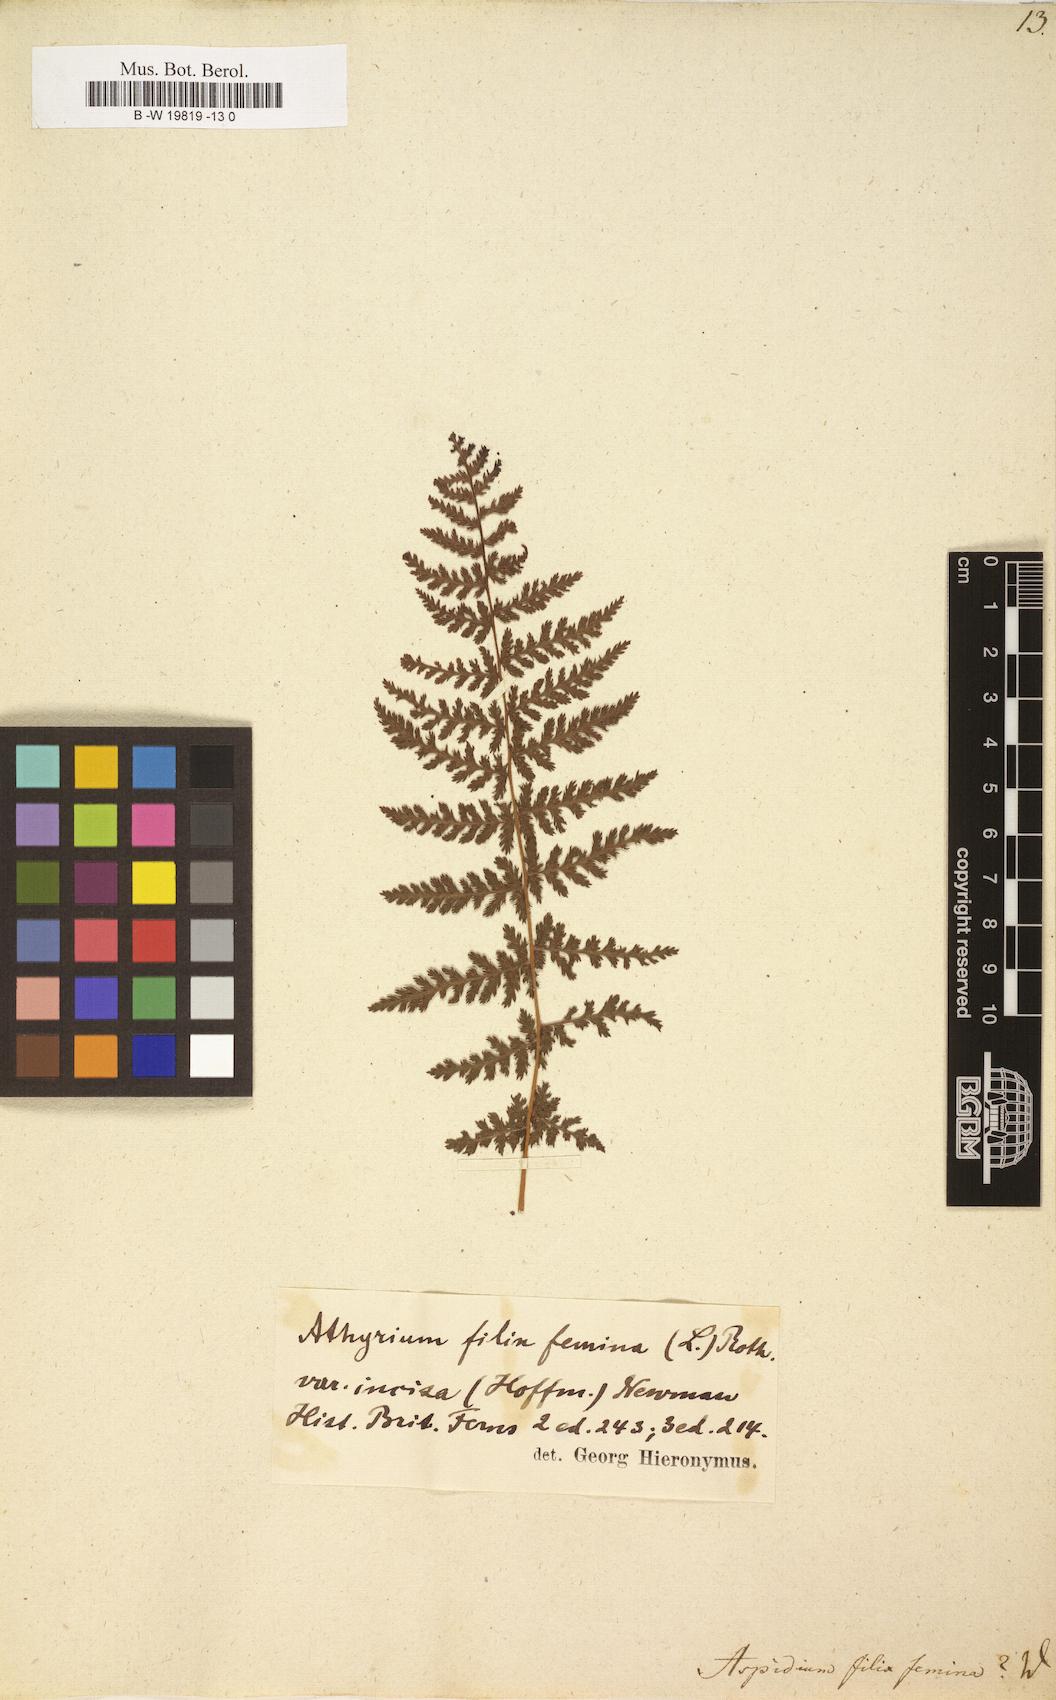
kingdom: Plantae
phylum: Tracheophyta
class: Polypodiopsida
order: Polypodiales
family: Athyriaceae
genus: Athyrium
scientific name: Athyrium filix-femina
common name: Lady fern
